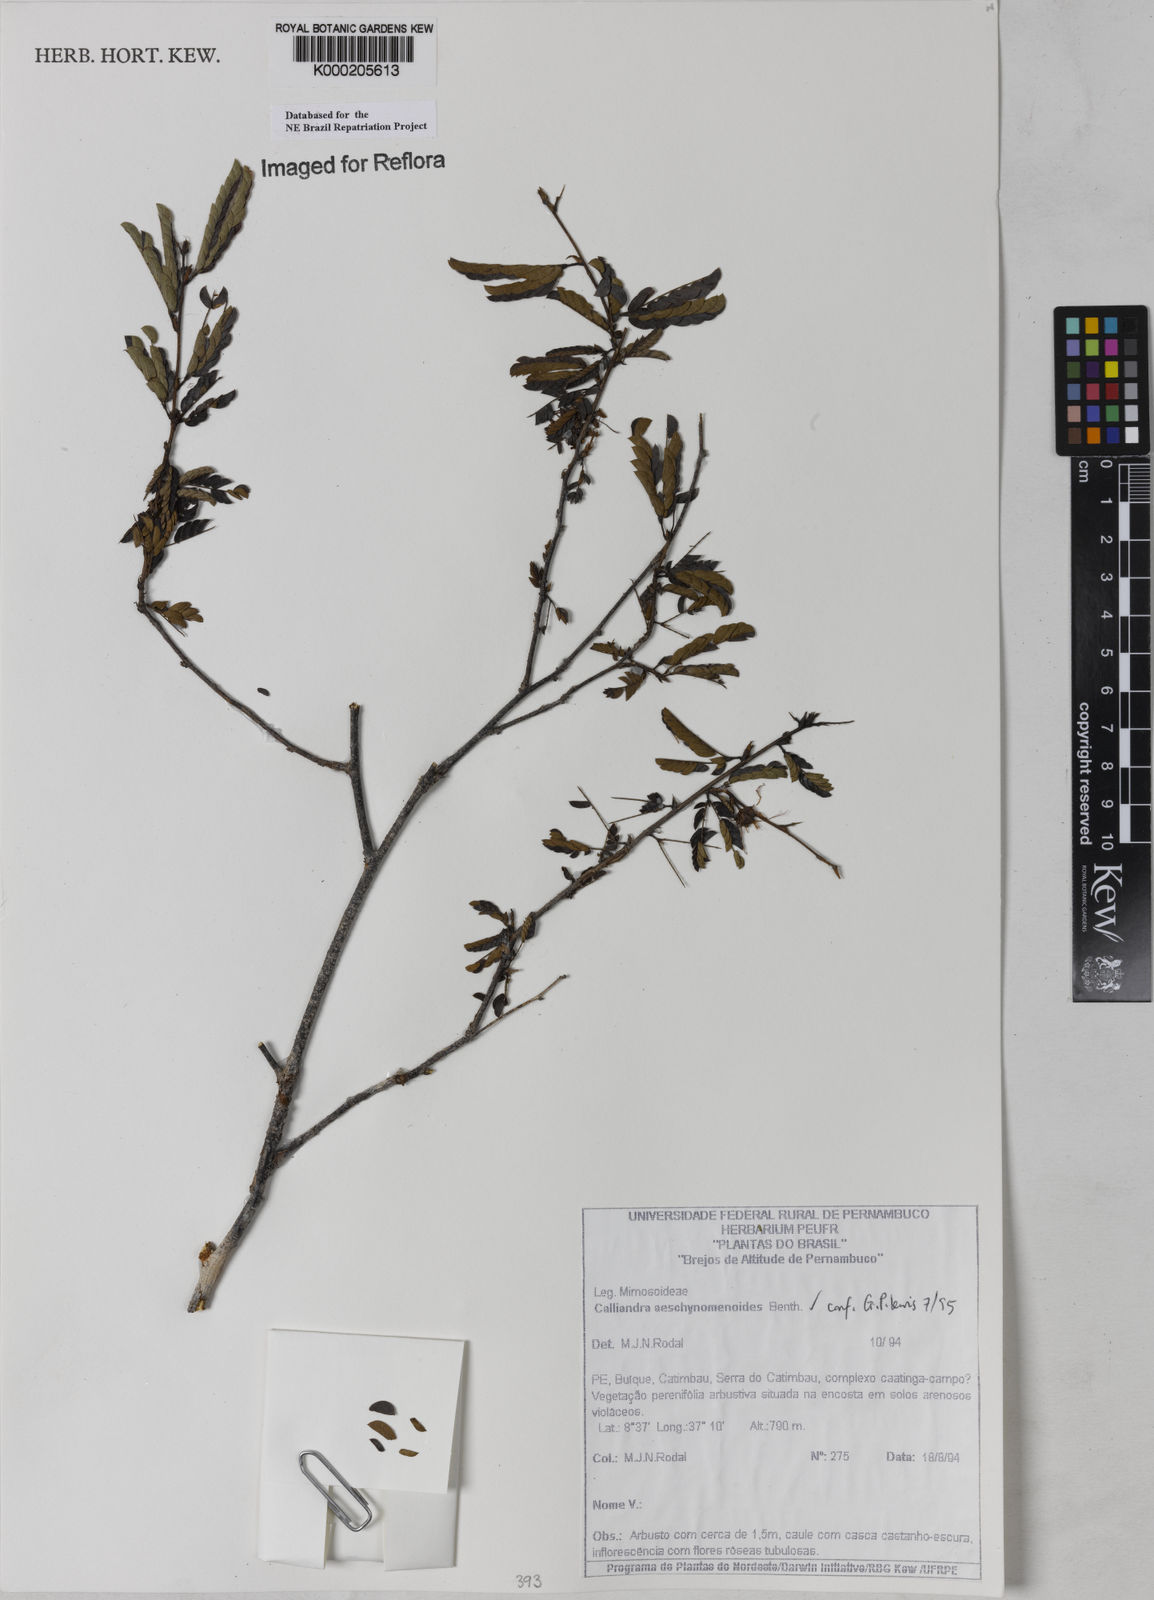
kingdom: Plantae
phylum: Tracheophyta
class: Magnoliopsida
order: Fabales
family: Fabaceae
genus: Calliandra
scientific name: Calliandra aeschynomenoides
